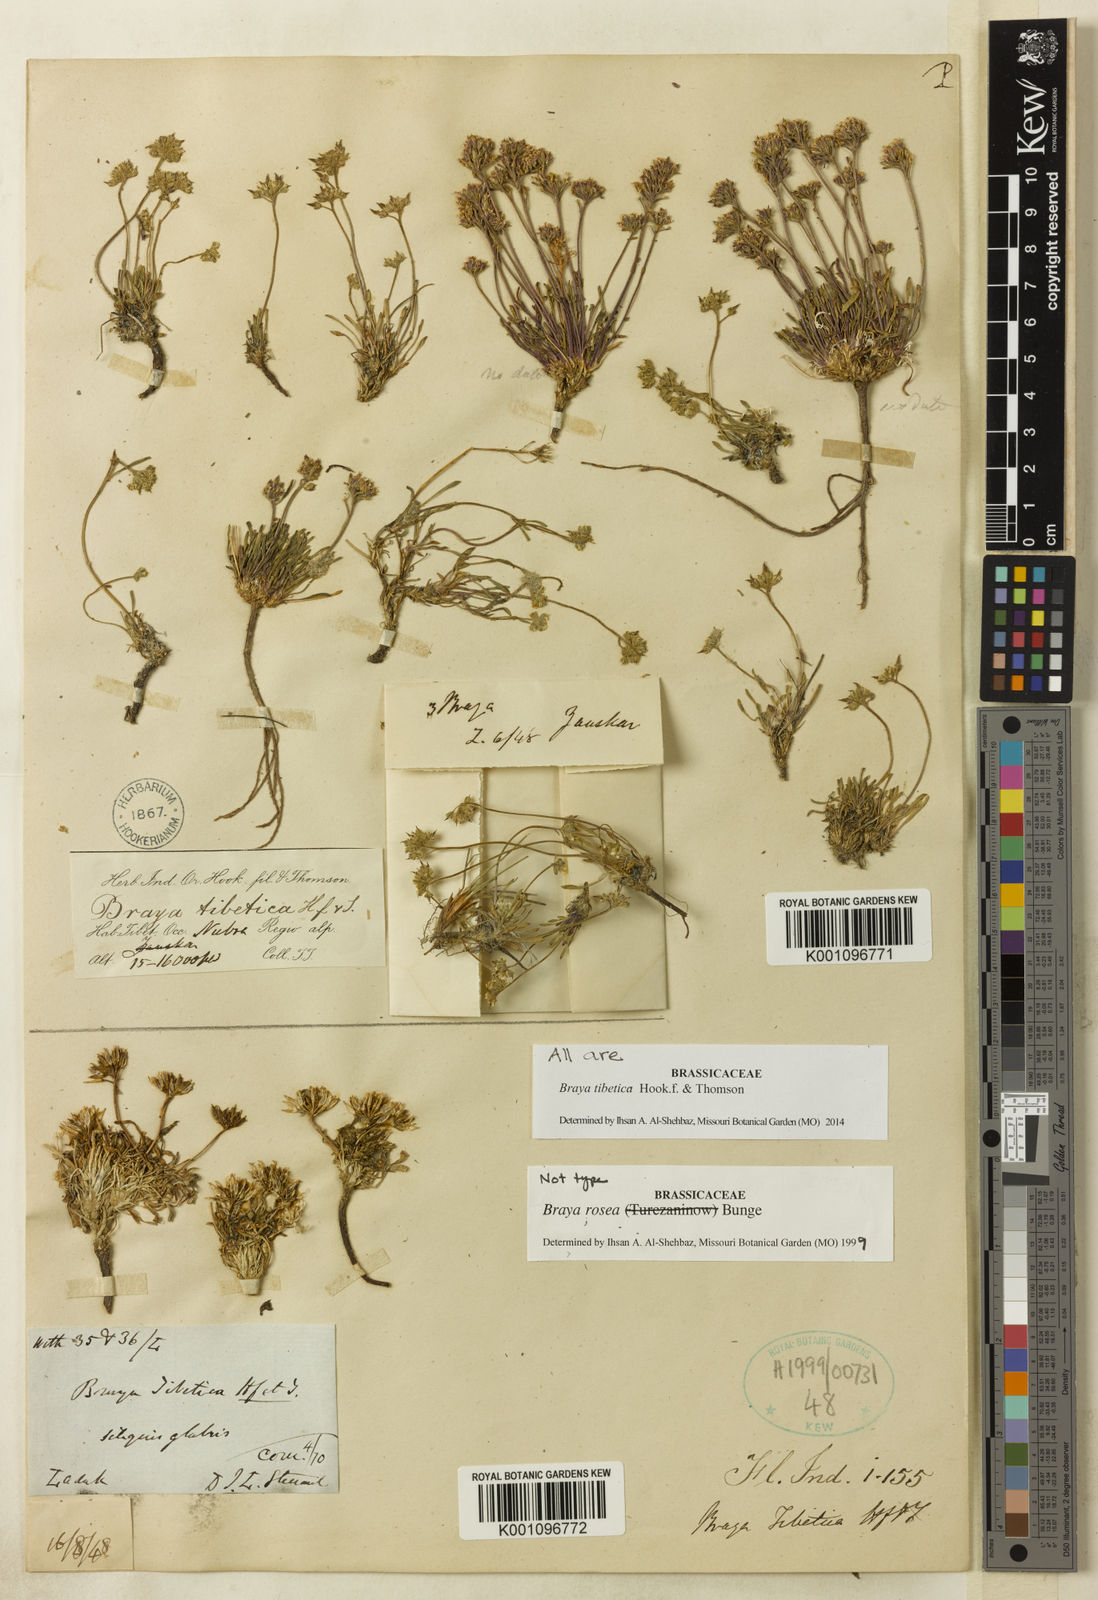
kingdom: Plantae
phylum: Tracheophyta
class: Magnoliopsida
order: Brassicales
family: Brassicaceae
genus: Braya
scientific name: Braya tibetica
